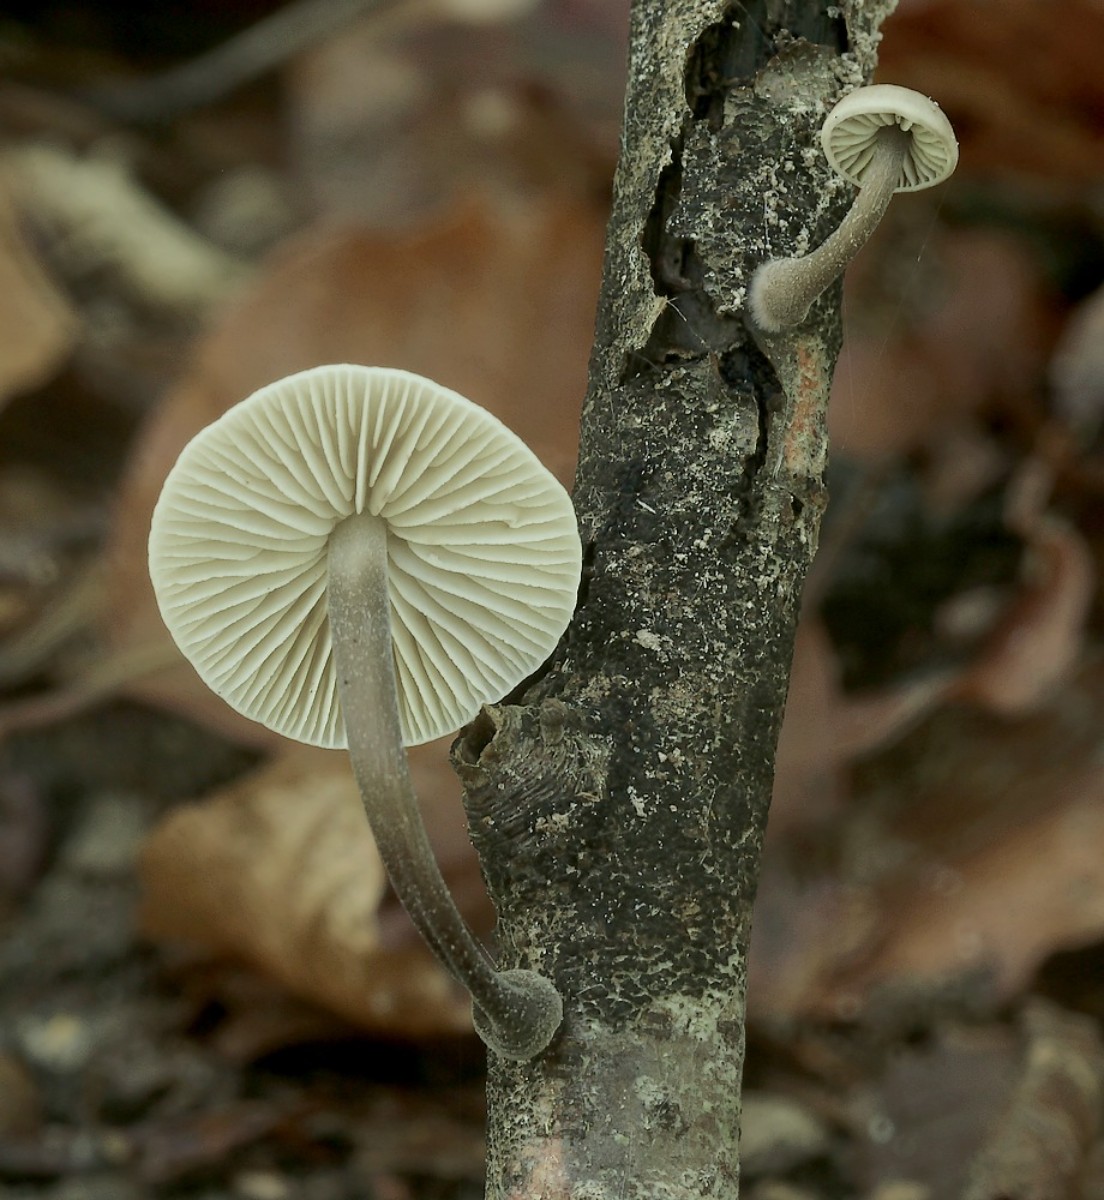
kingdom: Fungi
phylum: Basidiomycota
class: Agaricomycetes
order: Agaricales
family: Omphalotaceae
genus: Mycetinis
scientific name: Mycetinis alliaceus
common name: stor løghat
